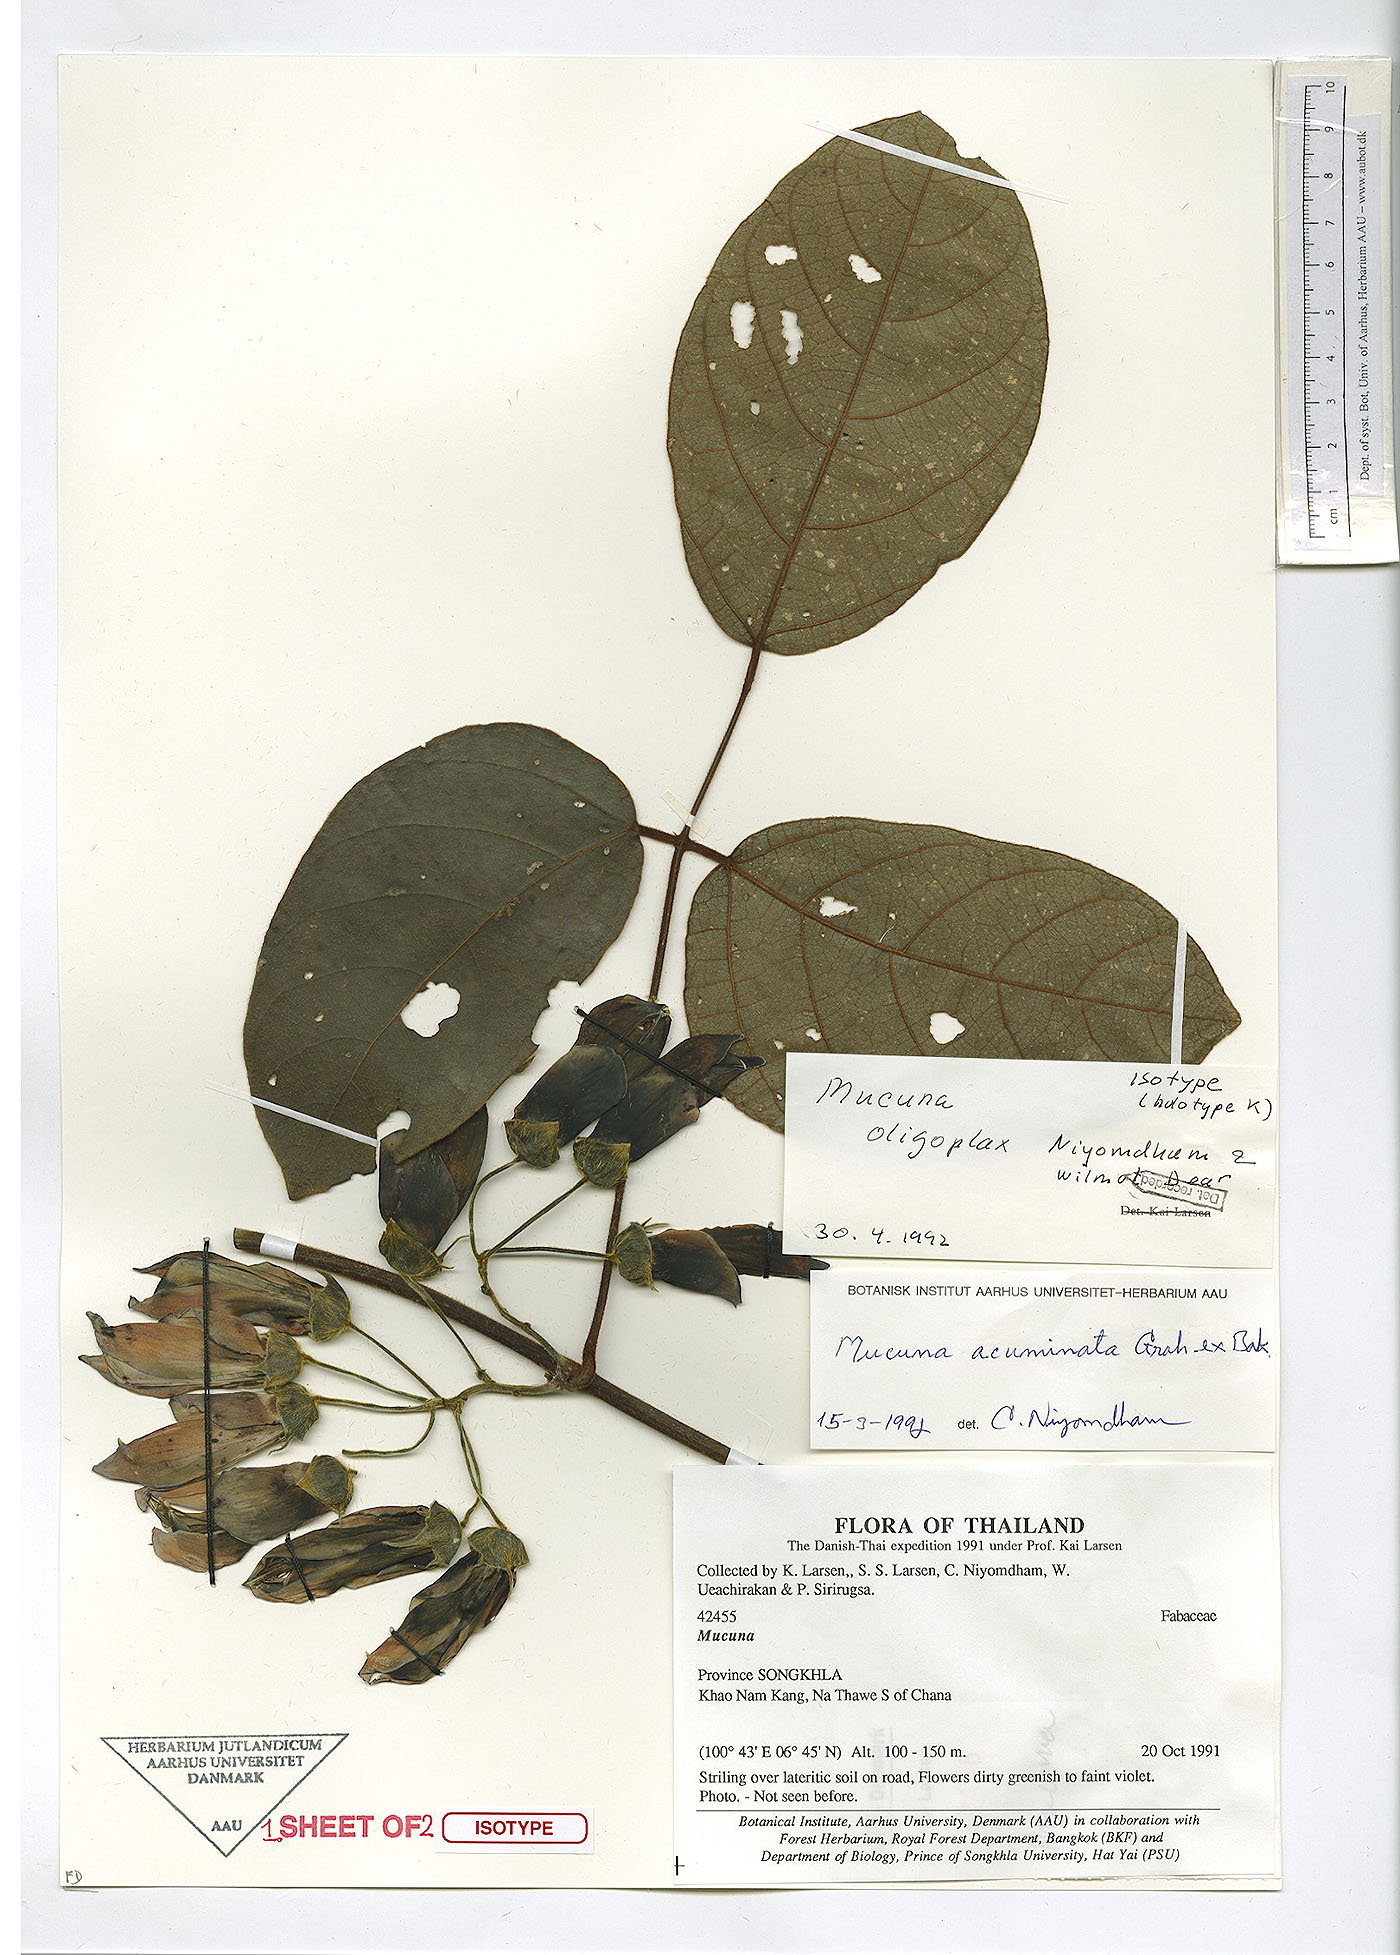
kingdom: Plantae
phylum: Tracheophyta
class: Magnoliopsida
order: Fabales
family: Fabaceae
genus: Mucuna
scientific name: Mucuna oligoplax
